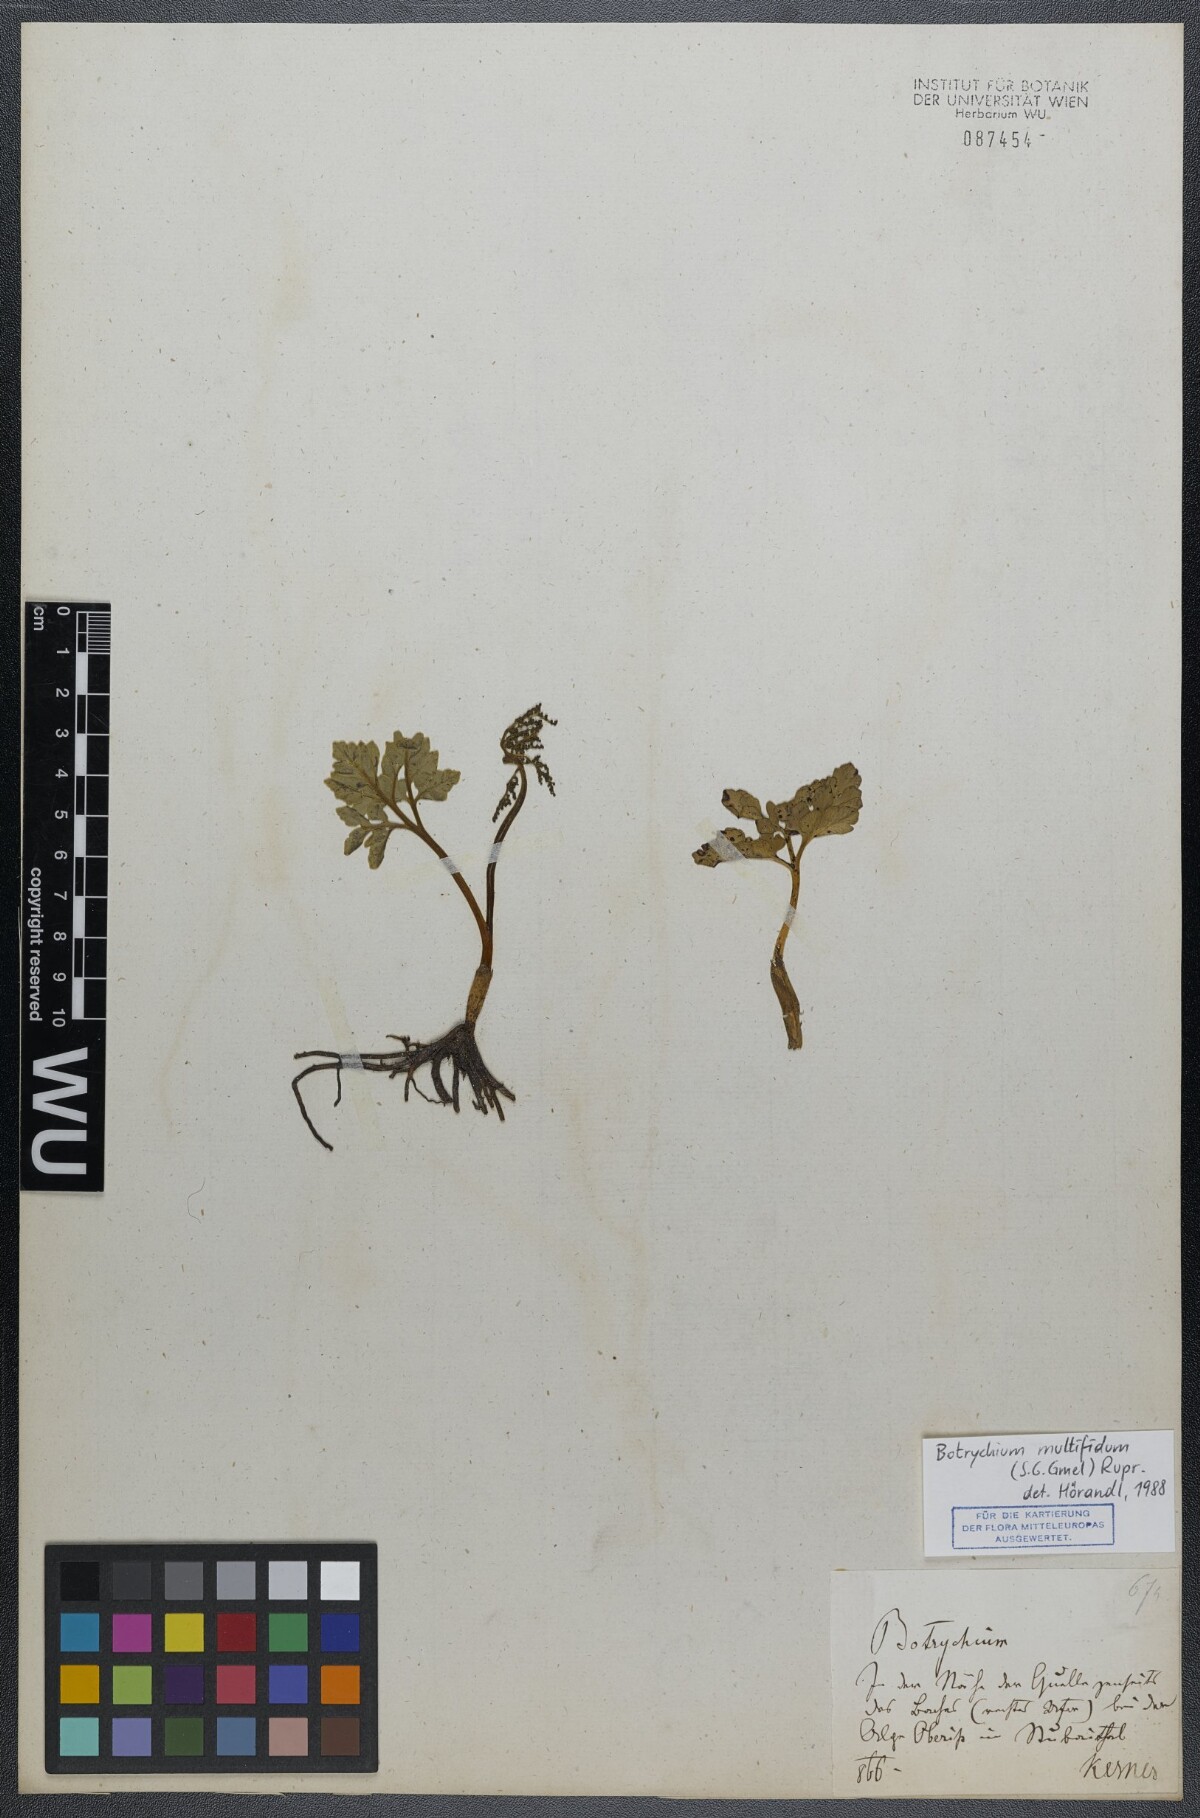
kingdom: Plantae
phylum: Tracheophyta
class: Polypodiopsida
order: Ophioglossales
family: Ophioglossaceae
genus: Sceptridium
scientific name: Sceptridium multifidum
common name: Leathery grape fern
